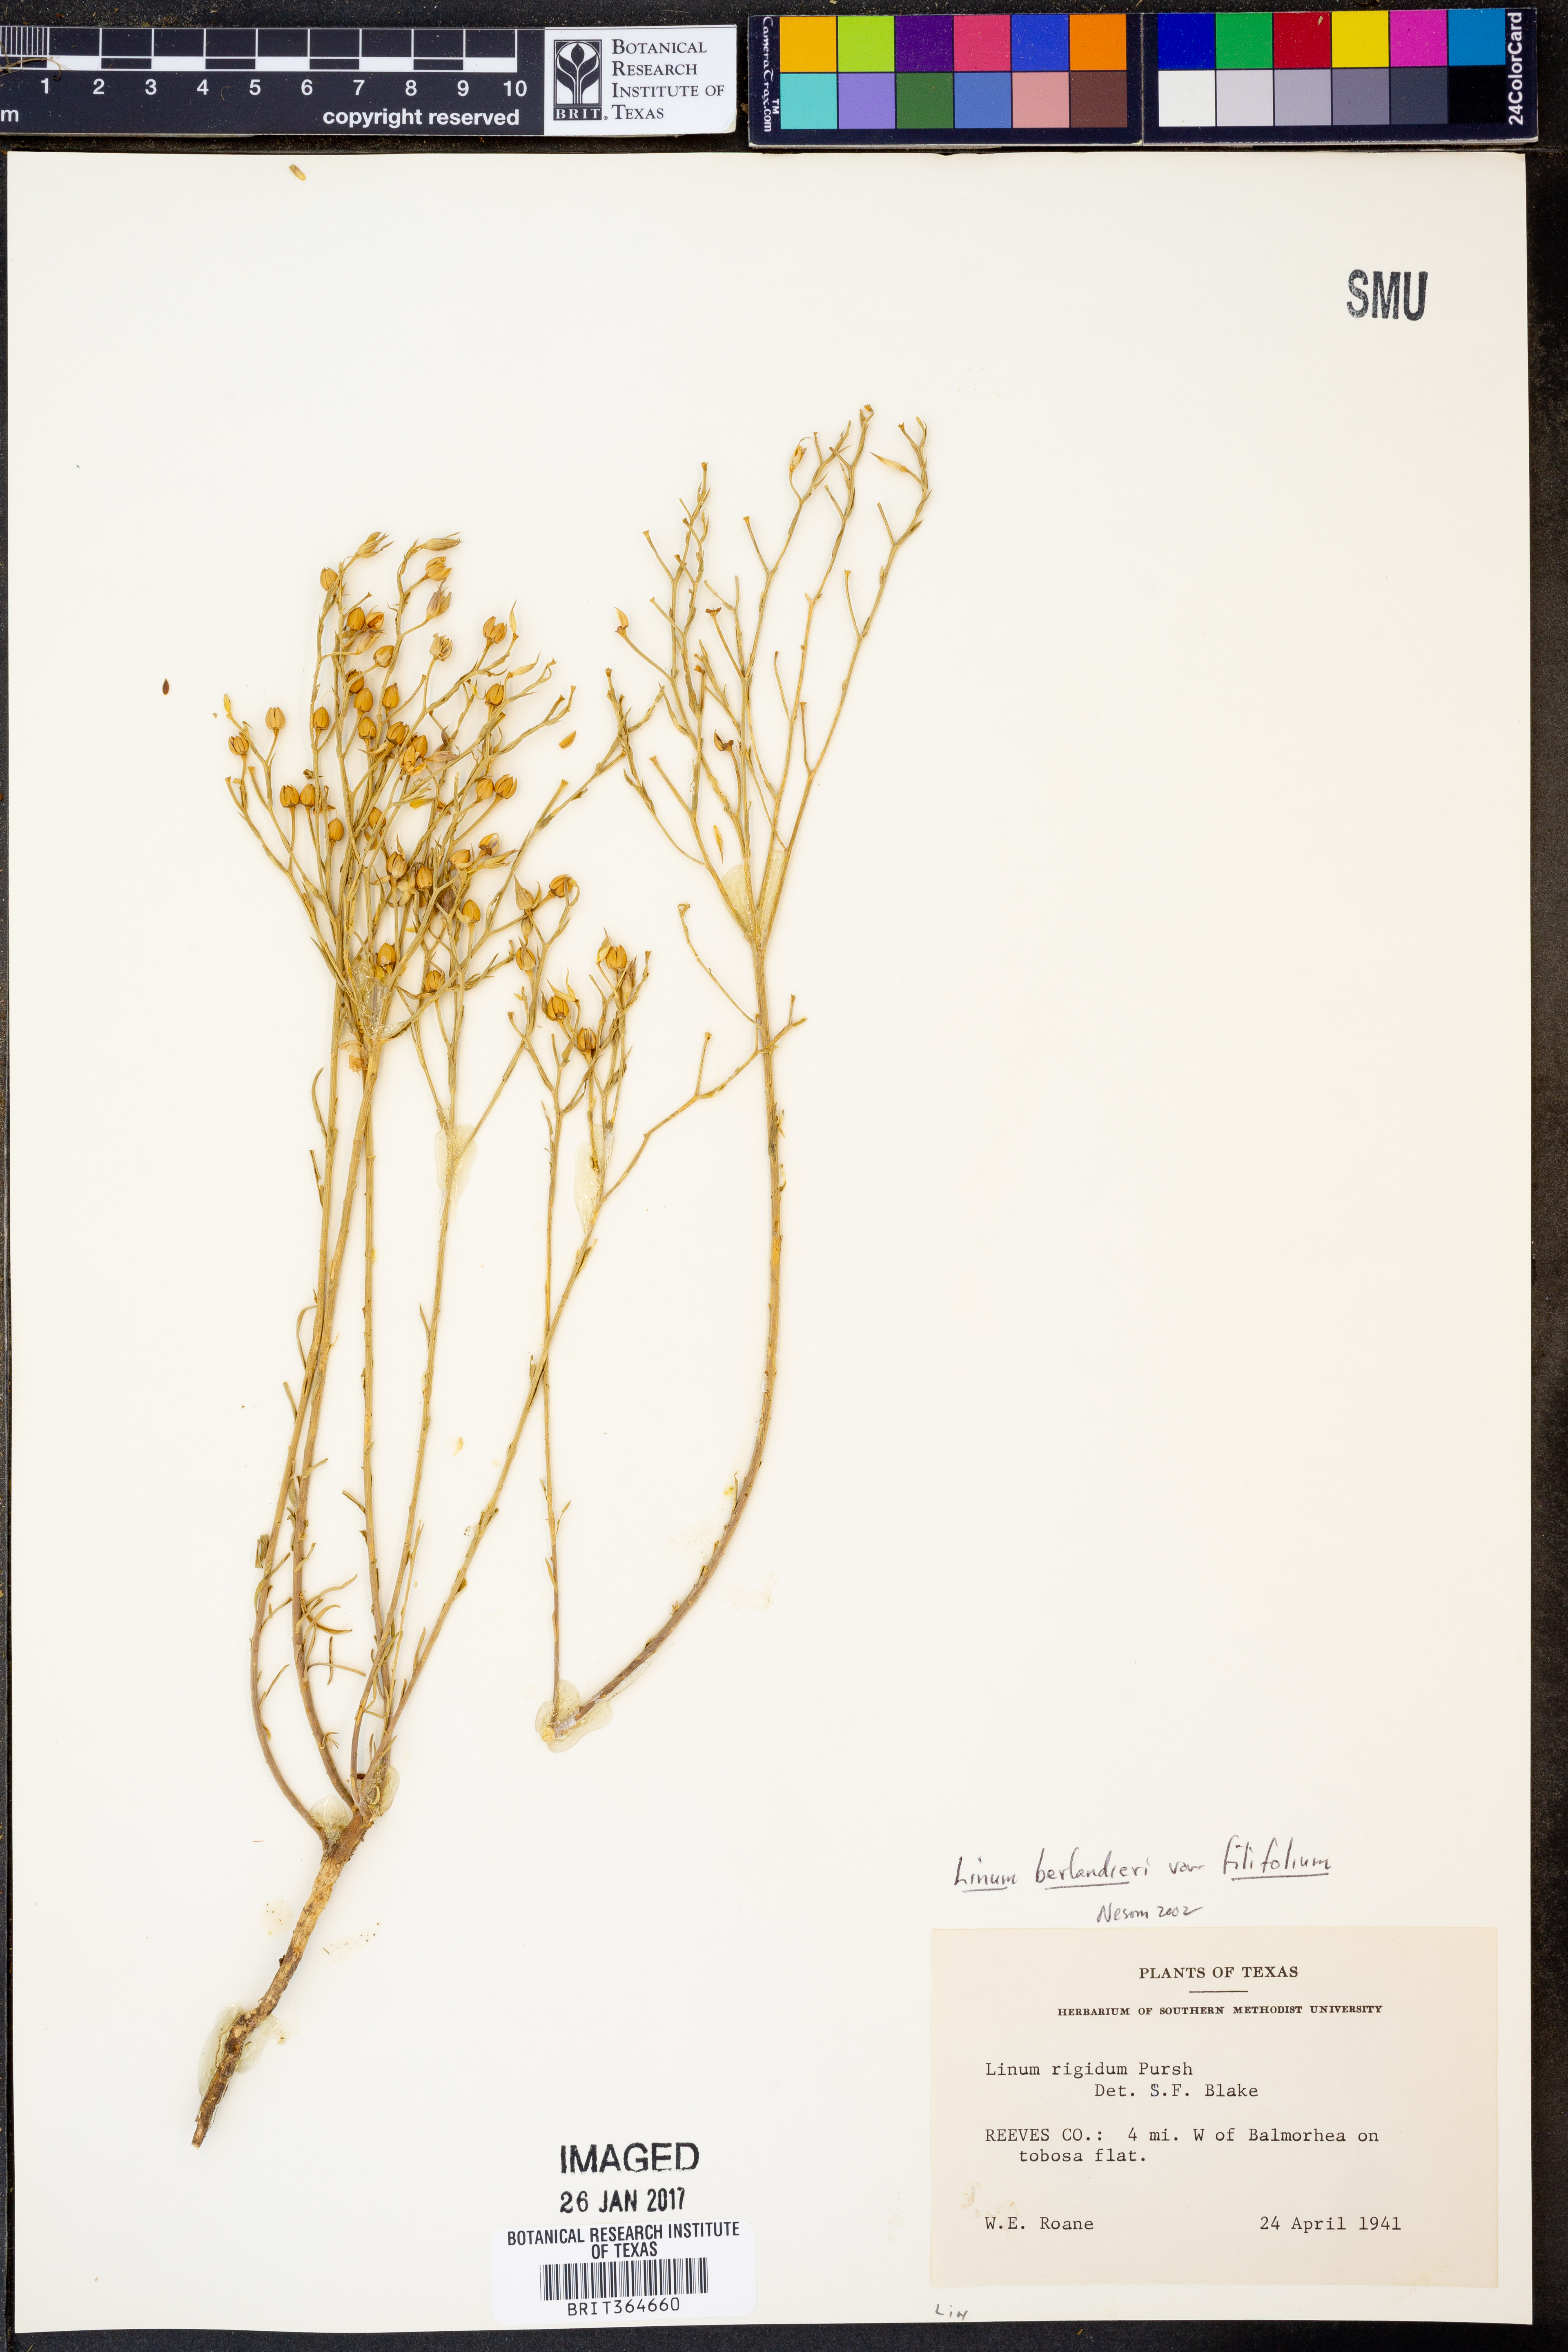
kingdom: Plantae
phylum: Tracheophyta
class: Magnoliopsida
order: Malpighiales
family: Linaceae
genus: Linum
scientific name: Linum berlandieri
